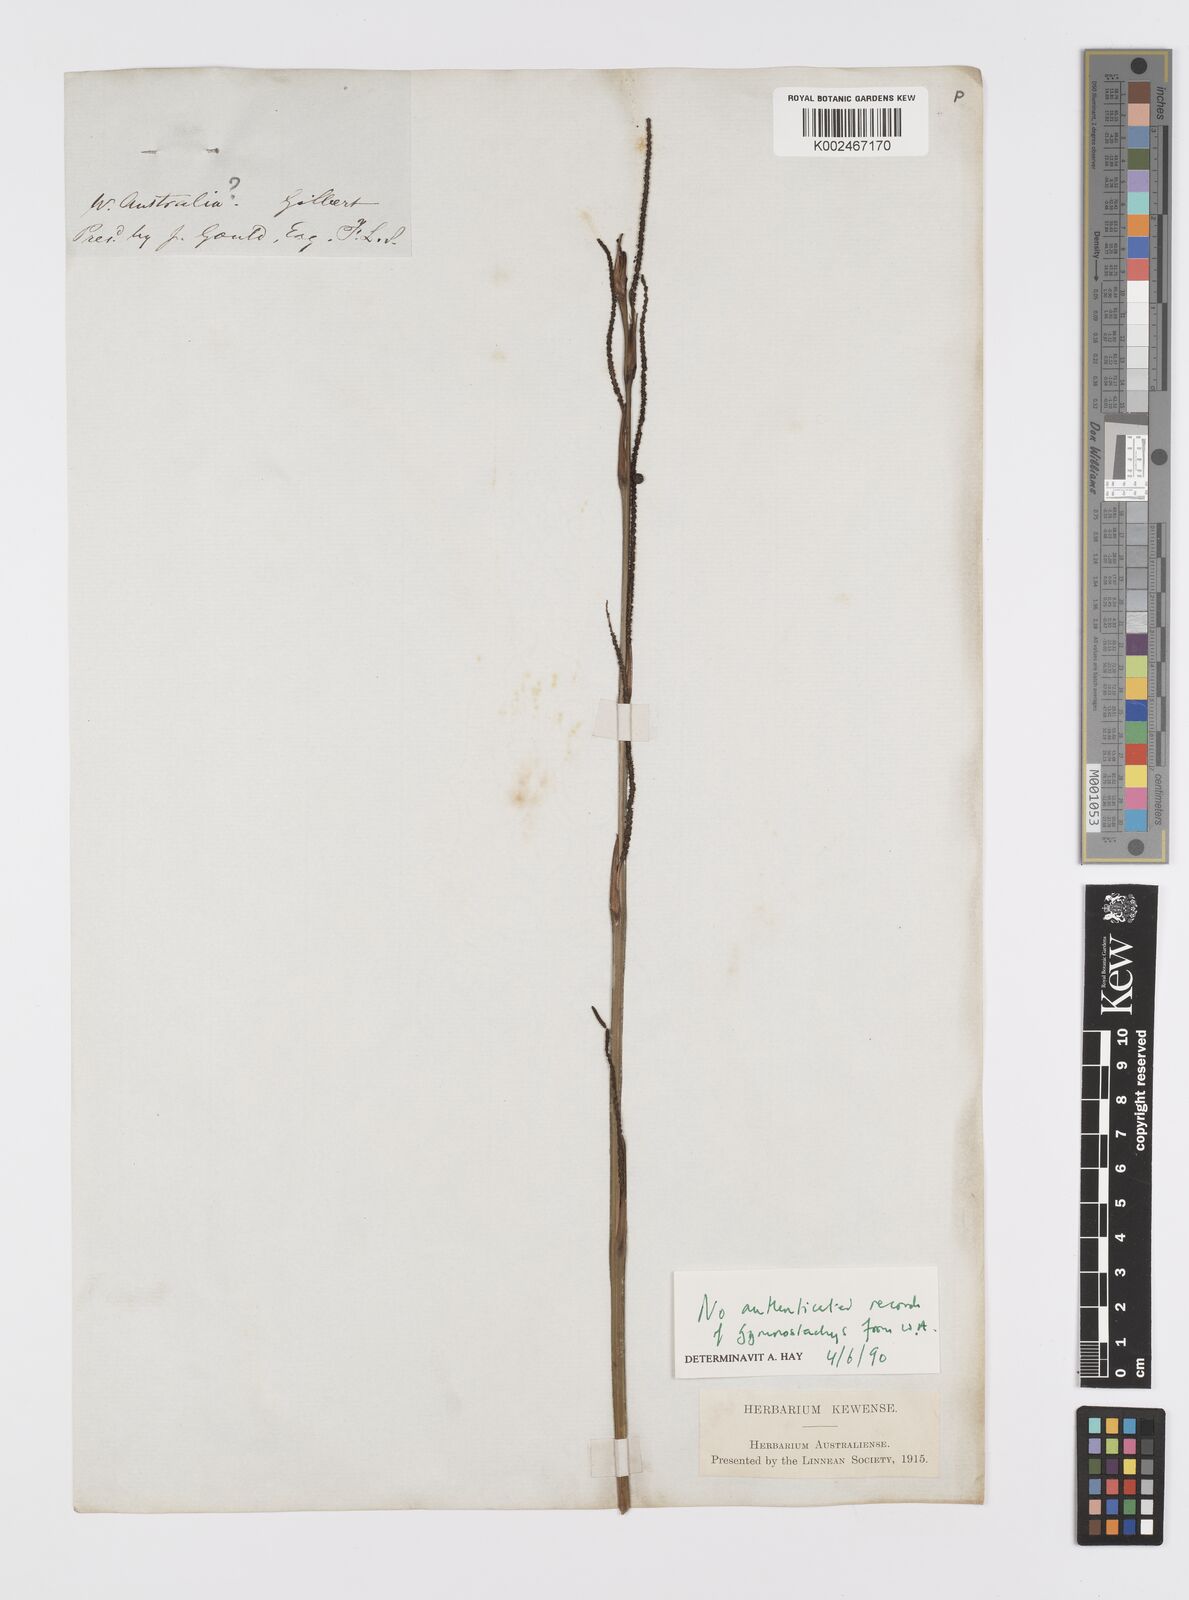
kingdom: Plantae
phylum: Tracheophyta
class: Liliopsida
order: Alismatales
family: Araceae
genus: Gymnostachys
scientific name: Gymnostachys anceps
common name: Settler's-flax
